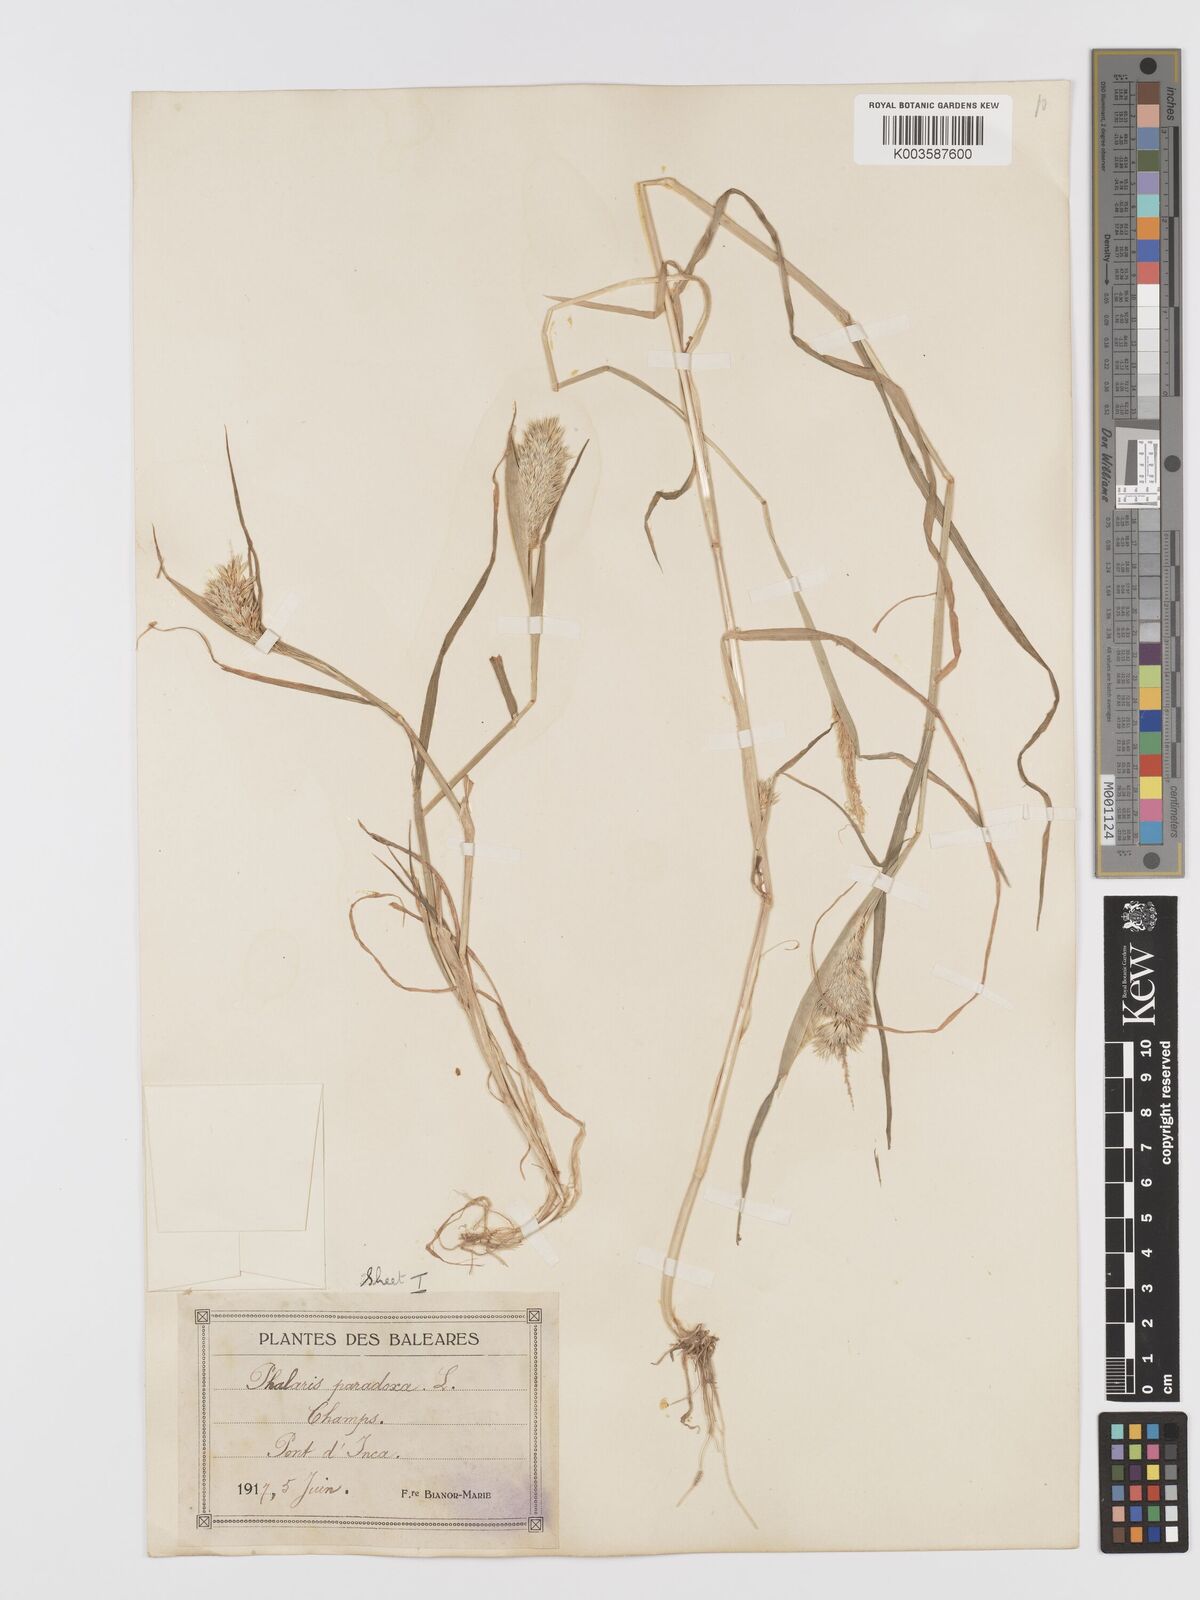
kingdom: Plantae
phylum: Tracheophyta
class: Liliopsida
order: Poales
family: Poaceae
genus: Phalaris
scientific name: Phalaris paradoxa
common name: Awned canary-grass
